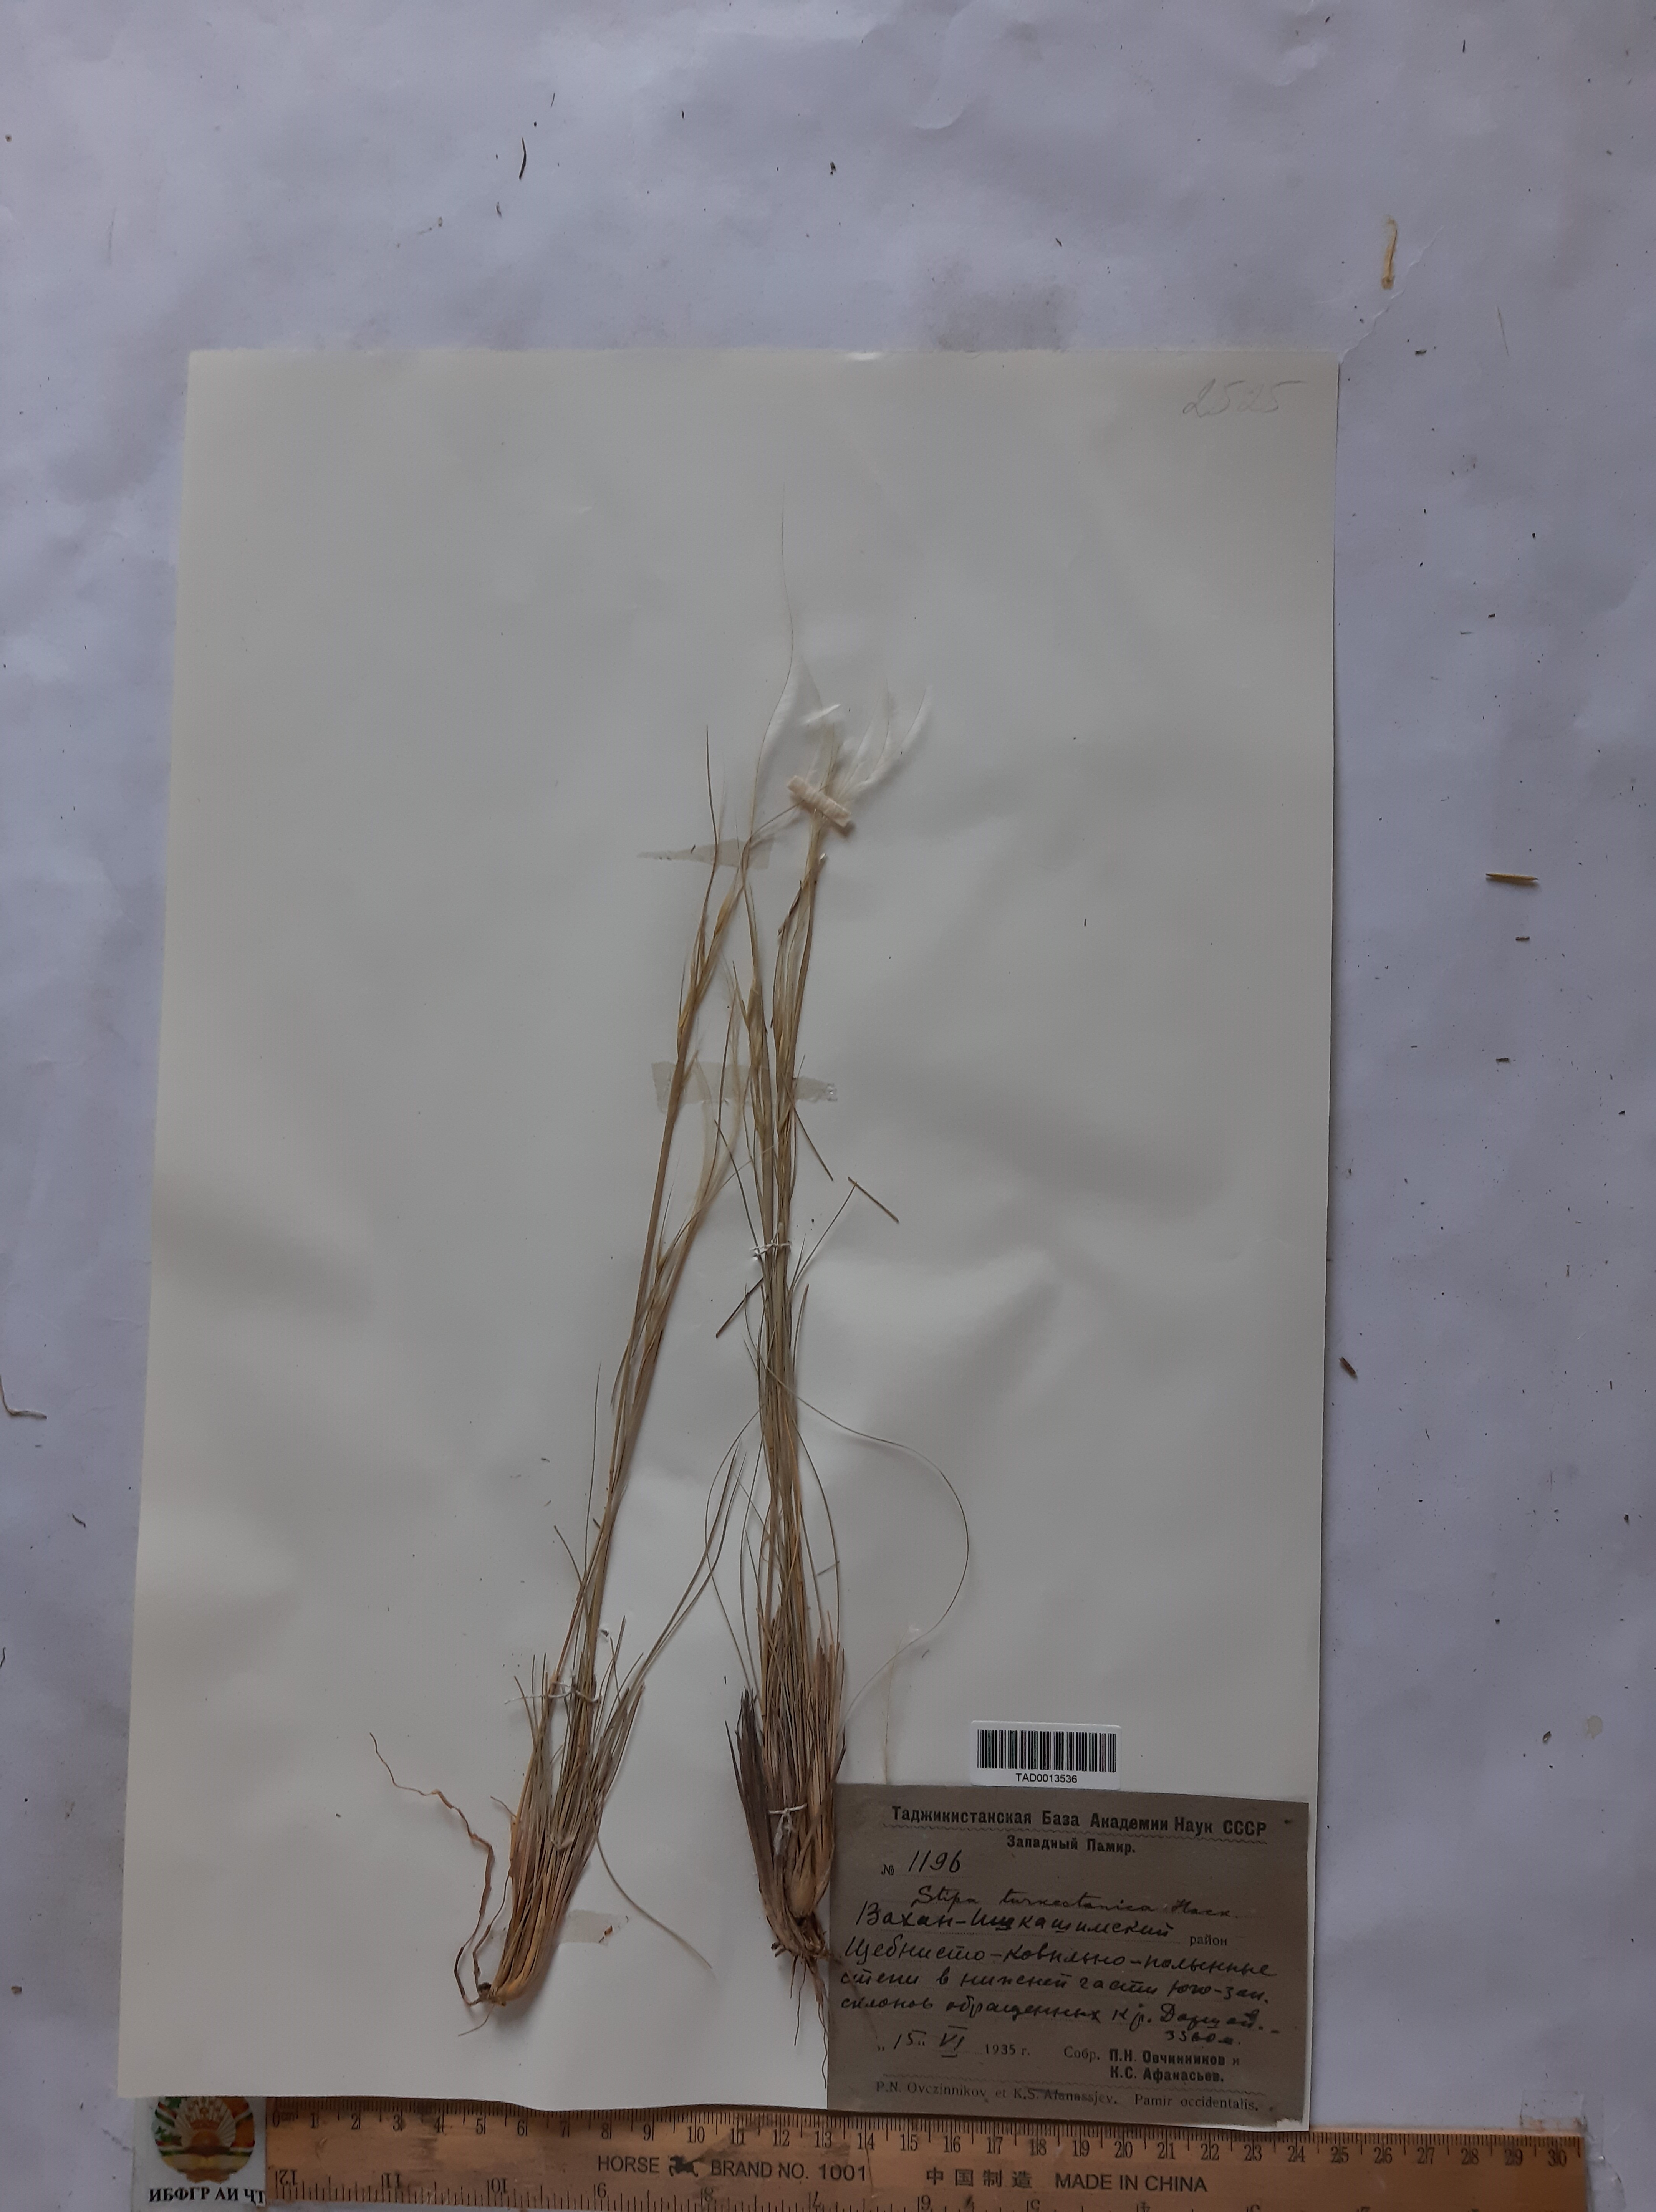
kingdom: Plantae
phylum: Tracheophyta
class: Liliopsida
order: Poales
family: Poaceae
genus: Stipa
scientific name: Stipa turkestanica
